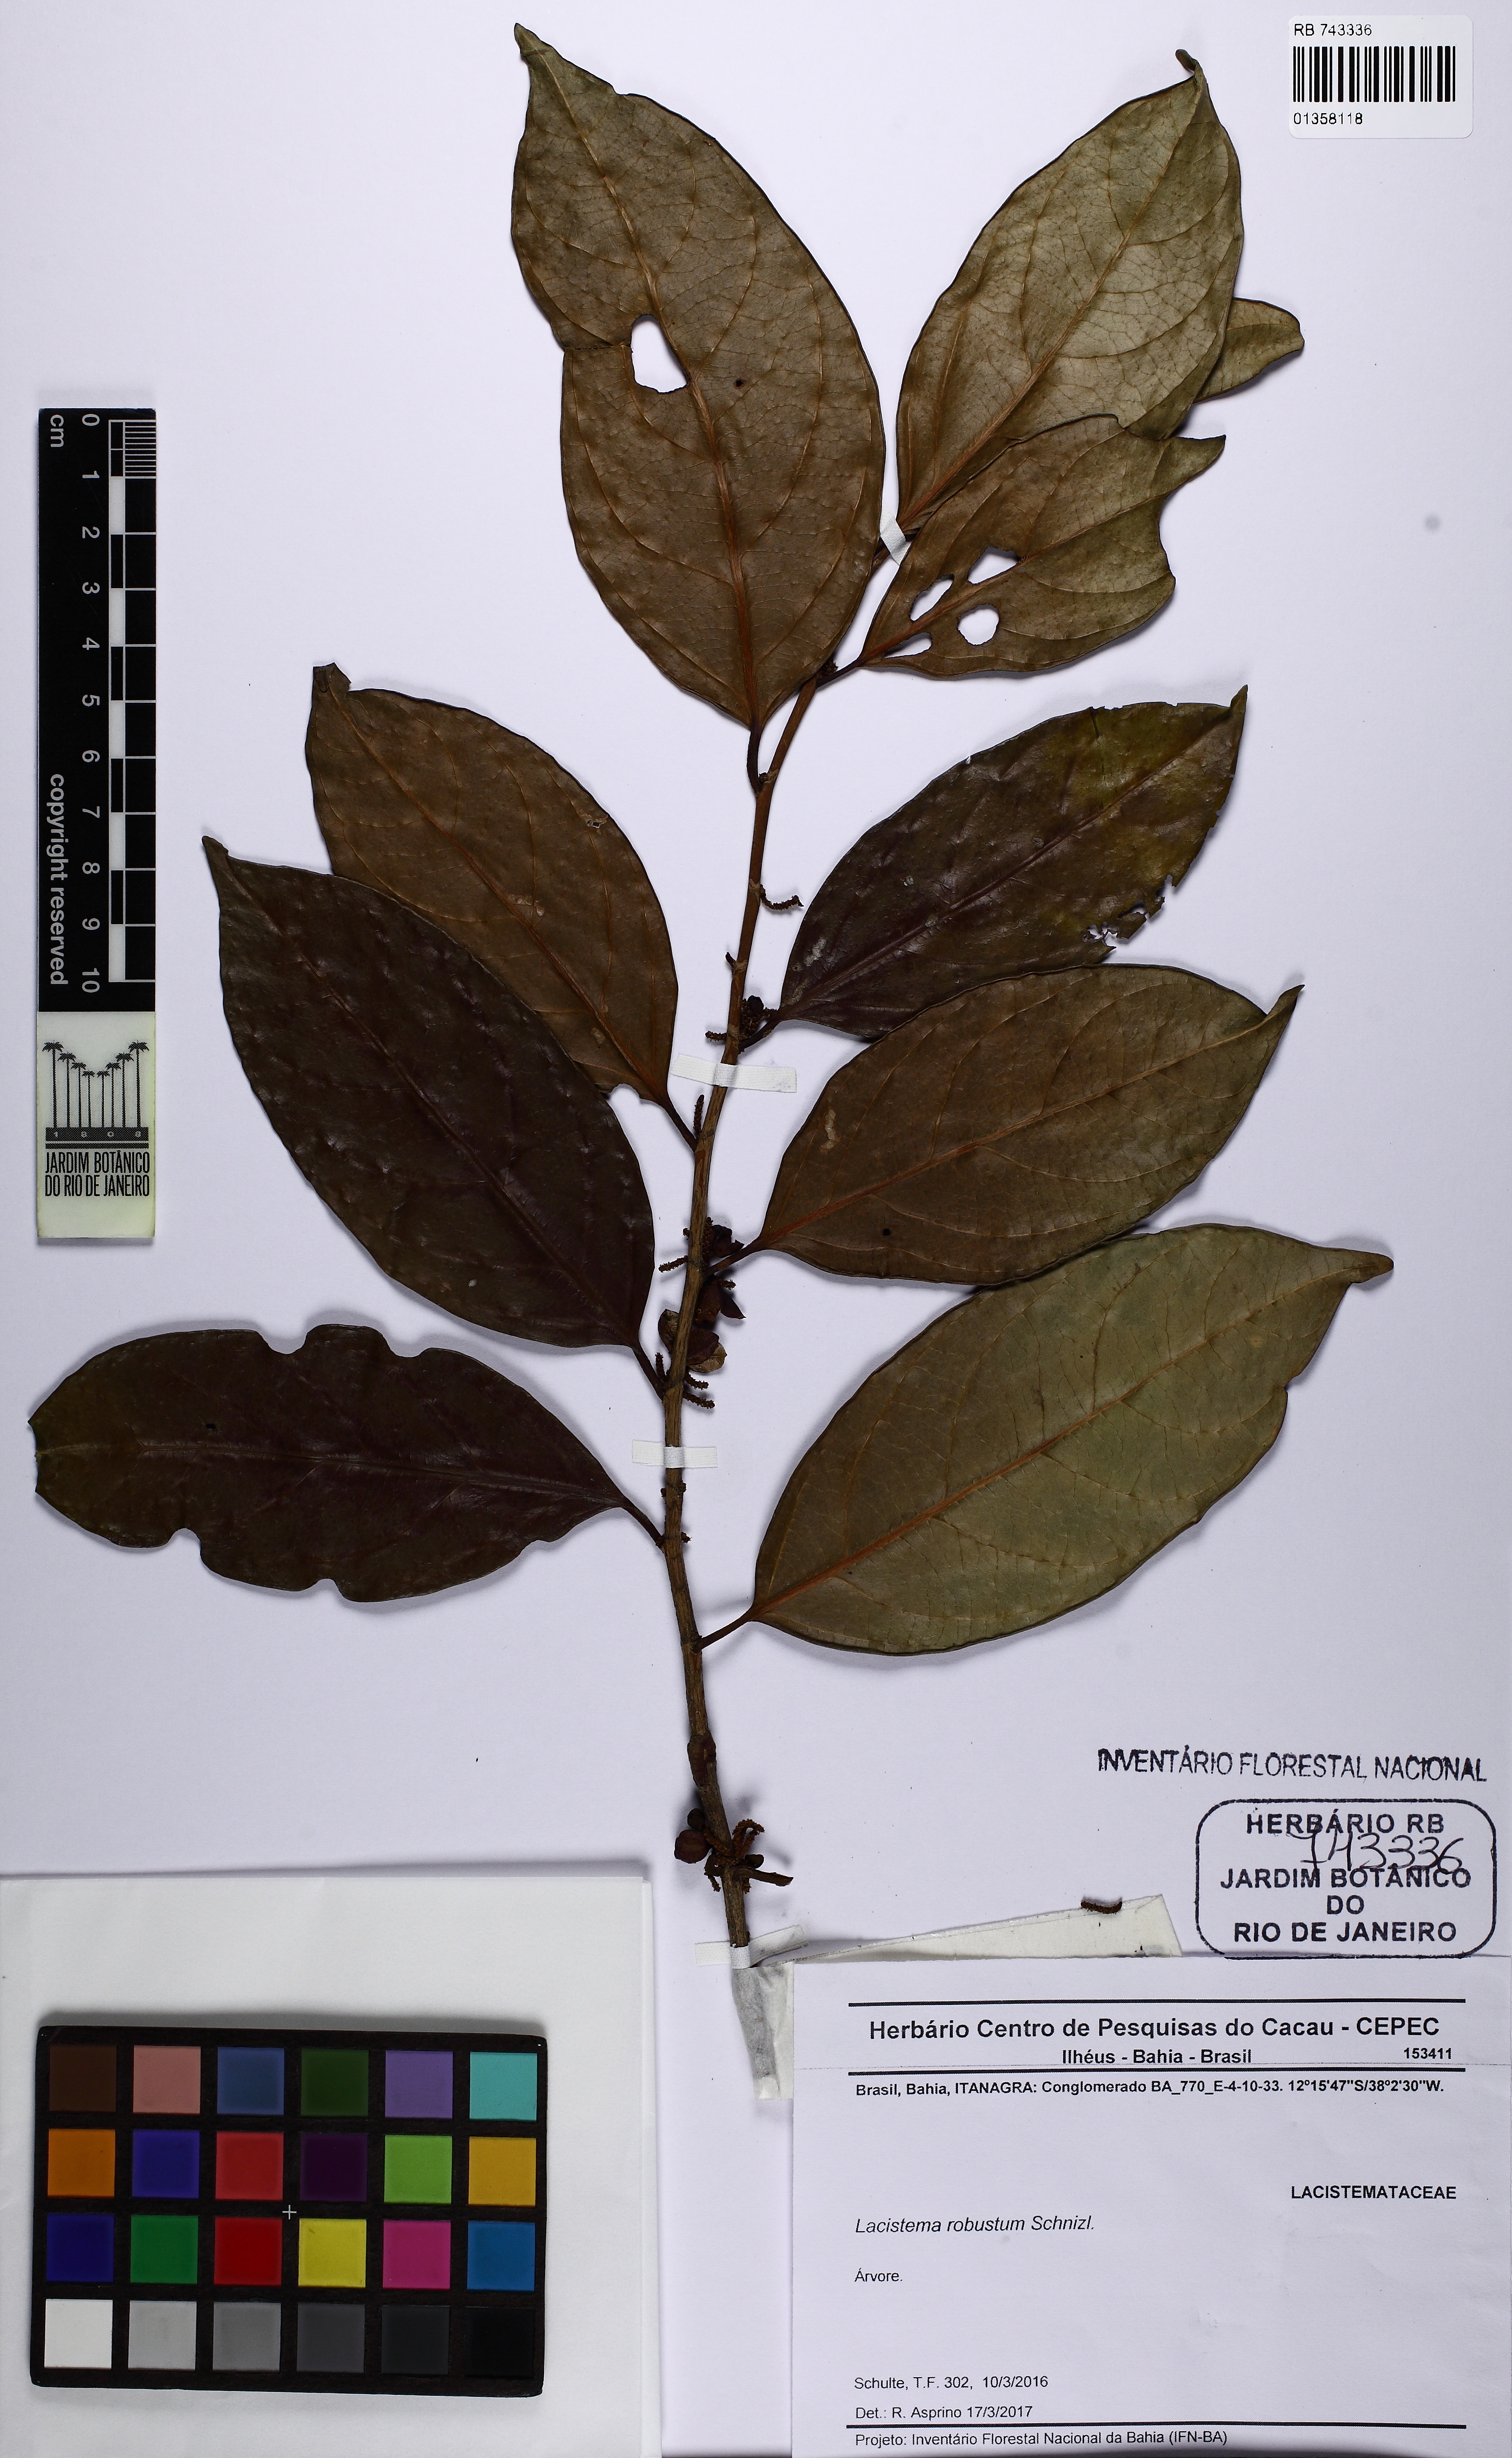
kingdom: Plantae
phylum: Tracheophyta
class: Magnoliopsida
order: Malpighiales
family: Lacistemataceae
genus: Lacistema
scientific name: Lacistema robustum
